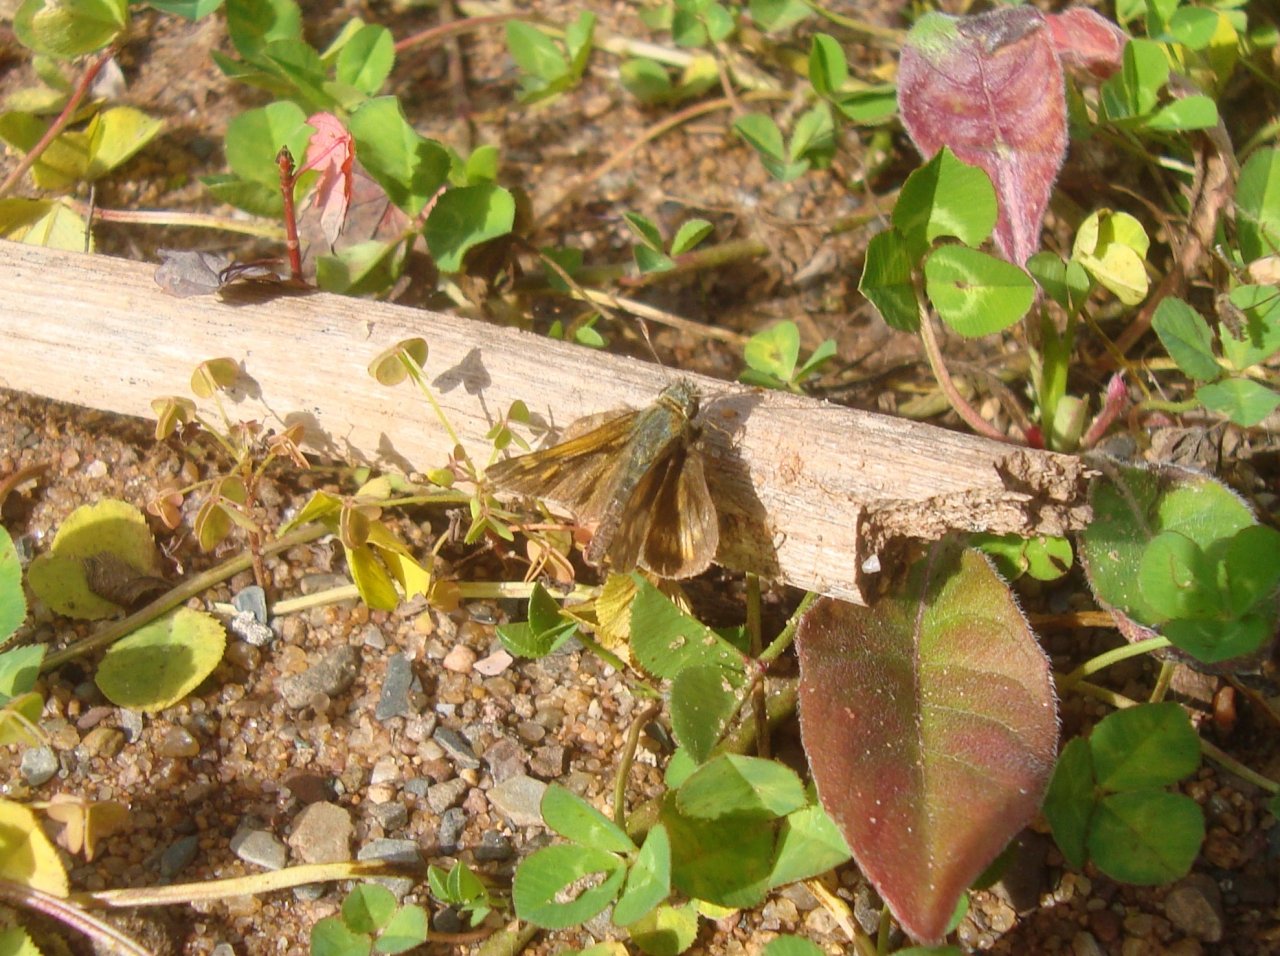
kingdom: Animalia
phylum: Arthropoda
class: Insecta
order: Lepidoptera
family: Hesperiidae
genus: Polites
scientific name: Polites coras
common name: Peck's Skipper
